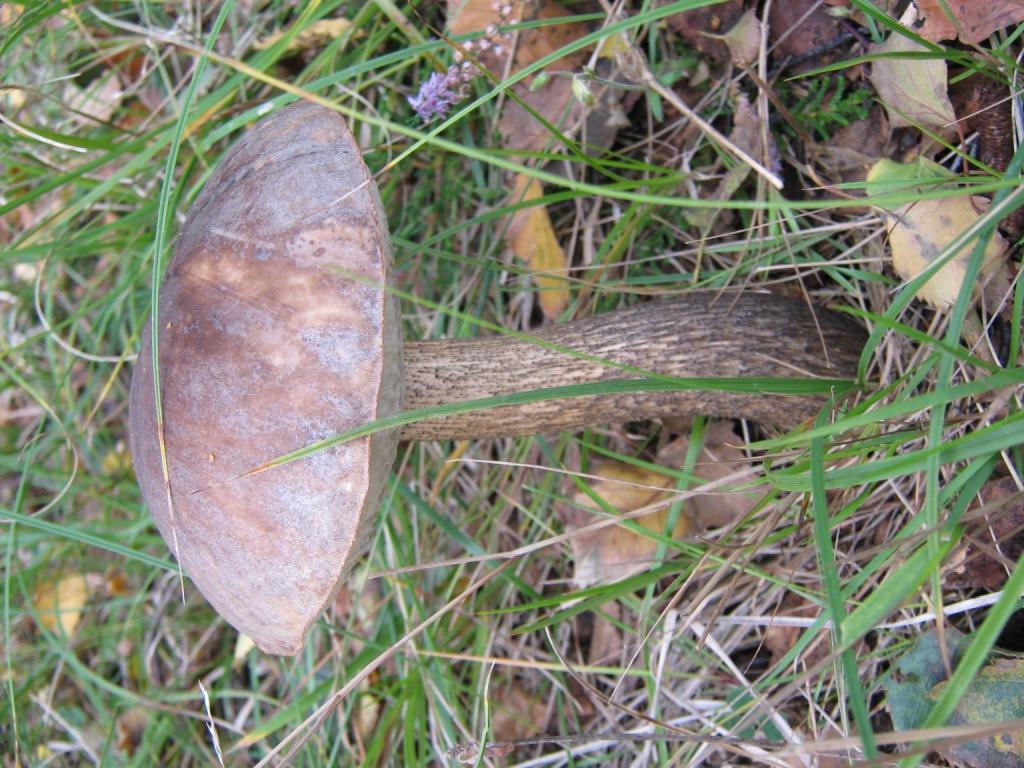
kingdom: Fungi
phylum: Basidiomycota
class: Agaricomycetes
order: Boletales
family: Boletaceae
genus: Leccinum
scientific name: Leccinum scabrum
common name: brun skælrørhat
